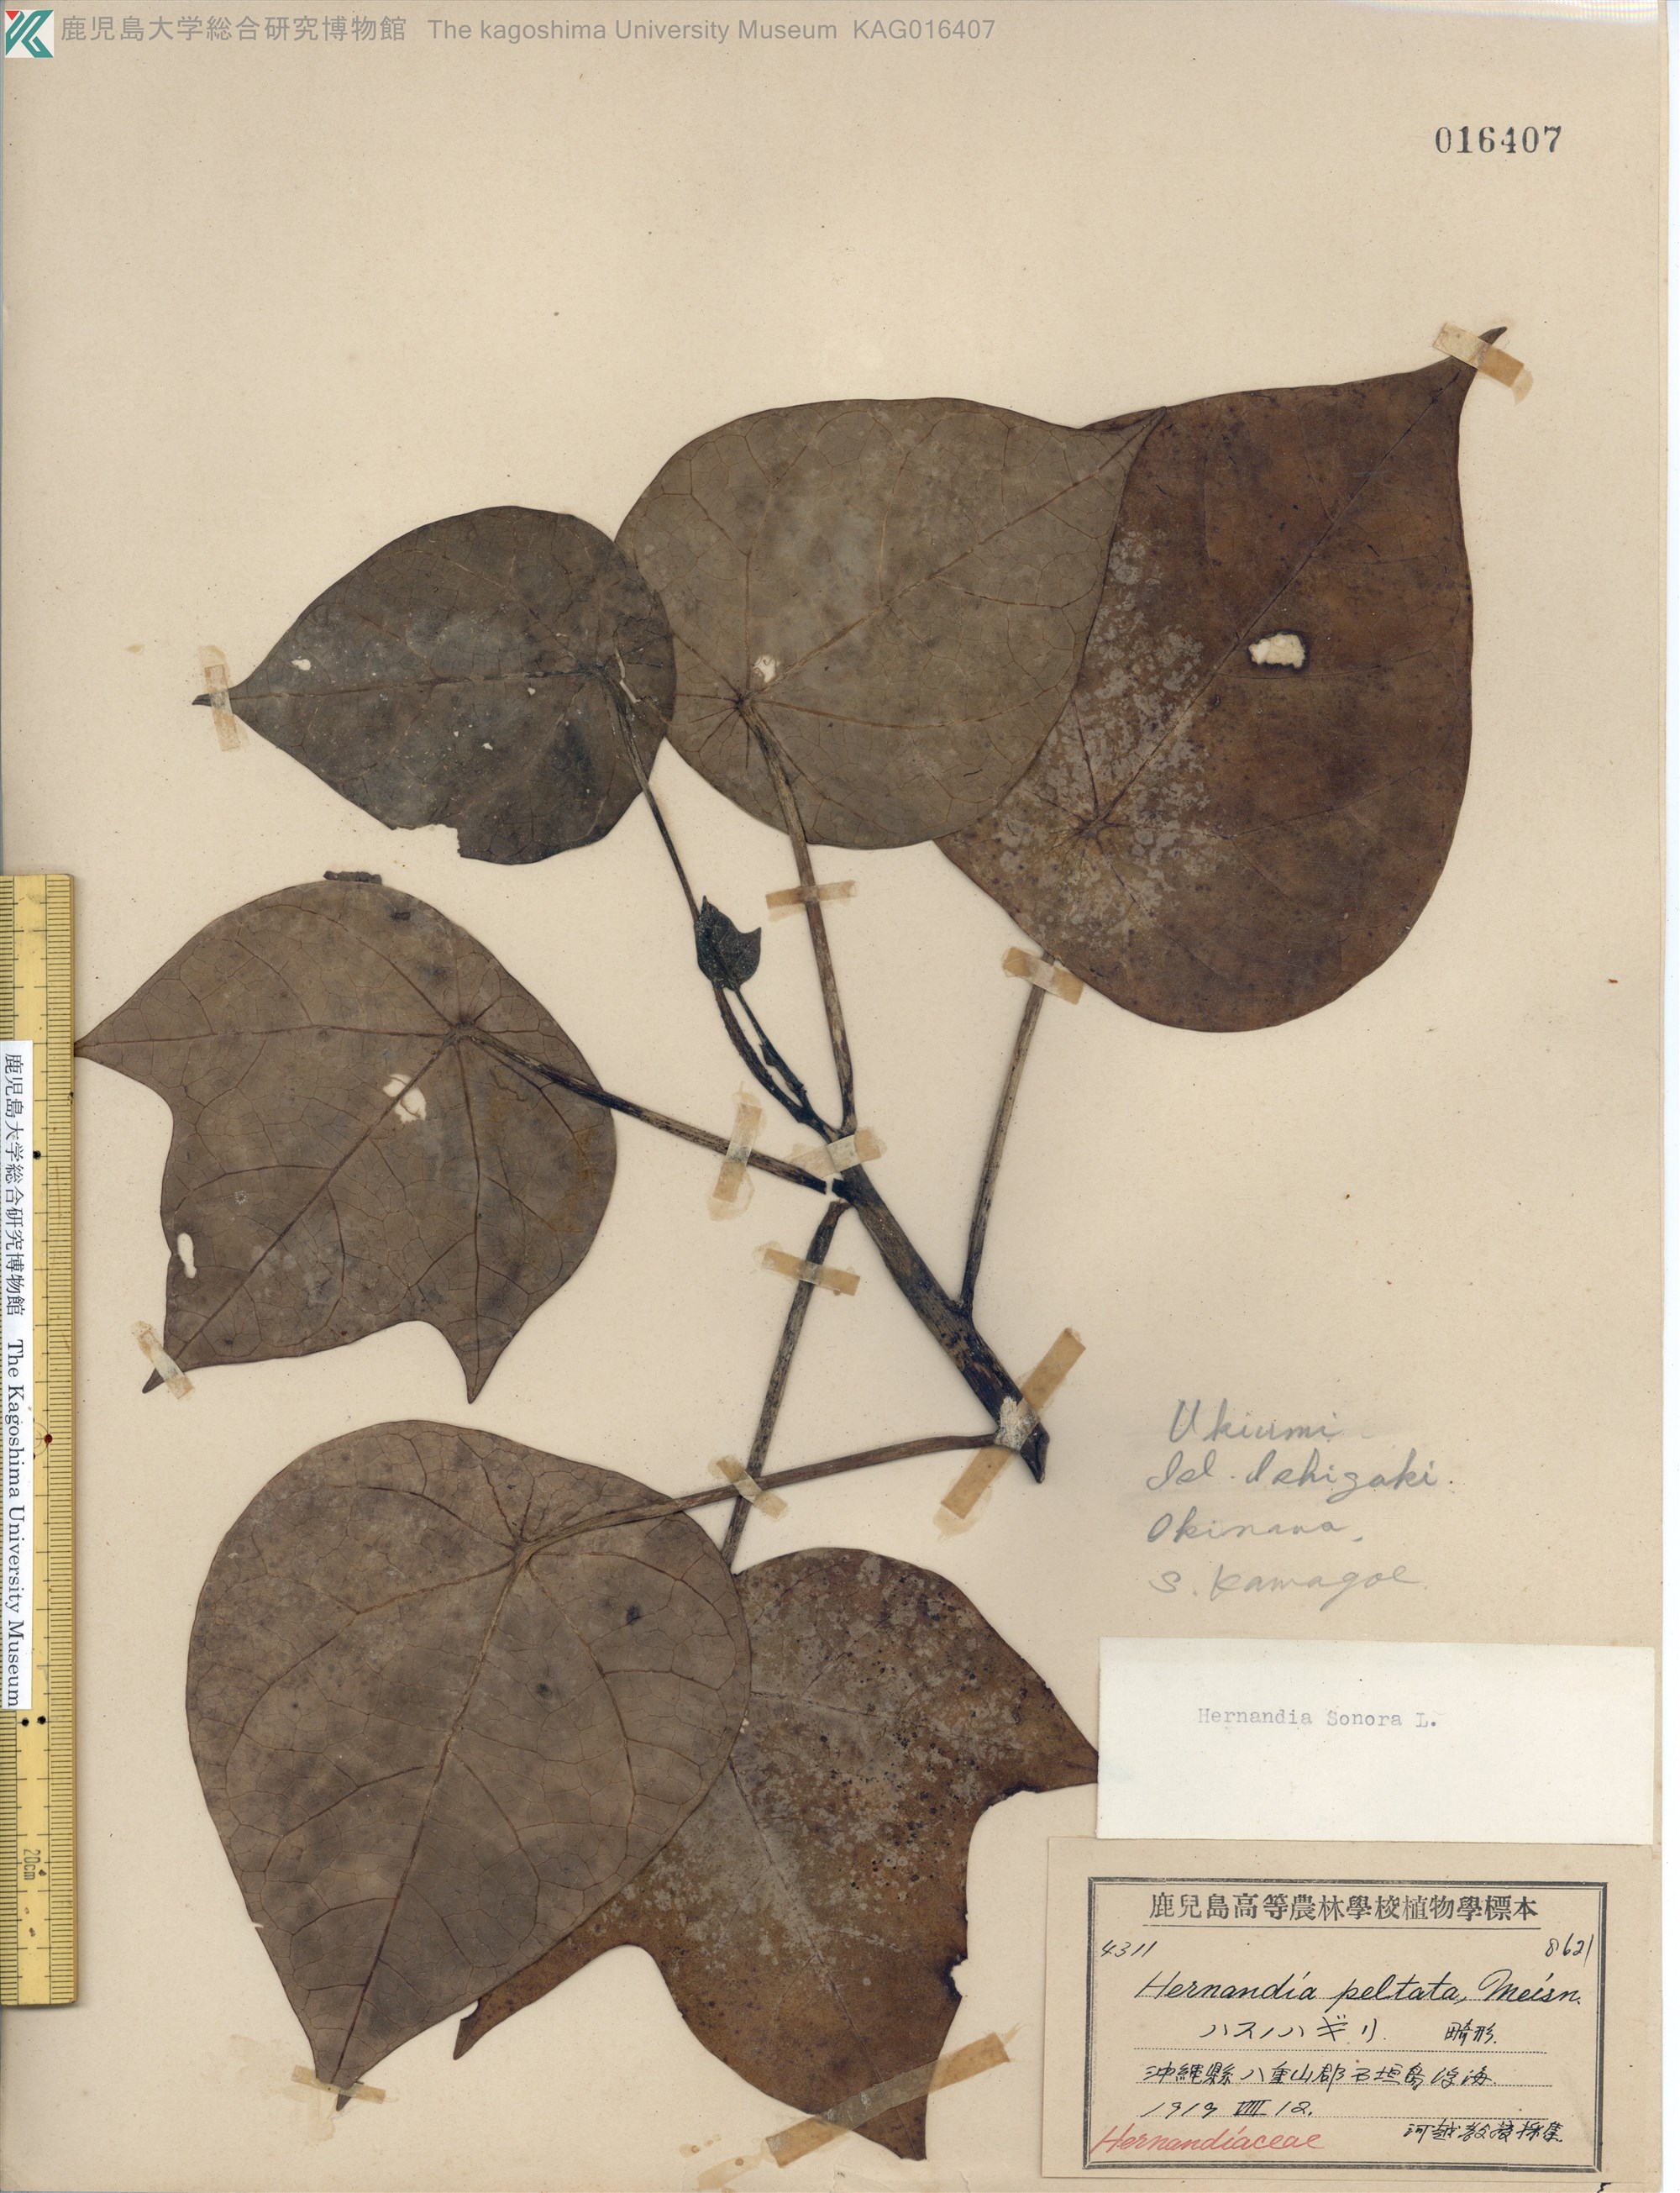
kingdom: Plantae
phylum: Tracheophyta
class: Magnoliopsida
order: Laurales
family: Hernandiaceae
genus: Hernandia
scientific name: Hernandia nymphaeifolia
